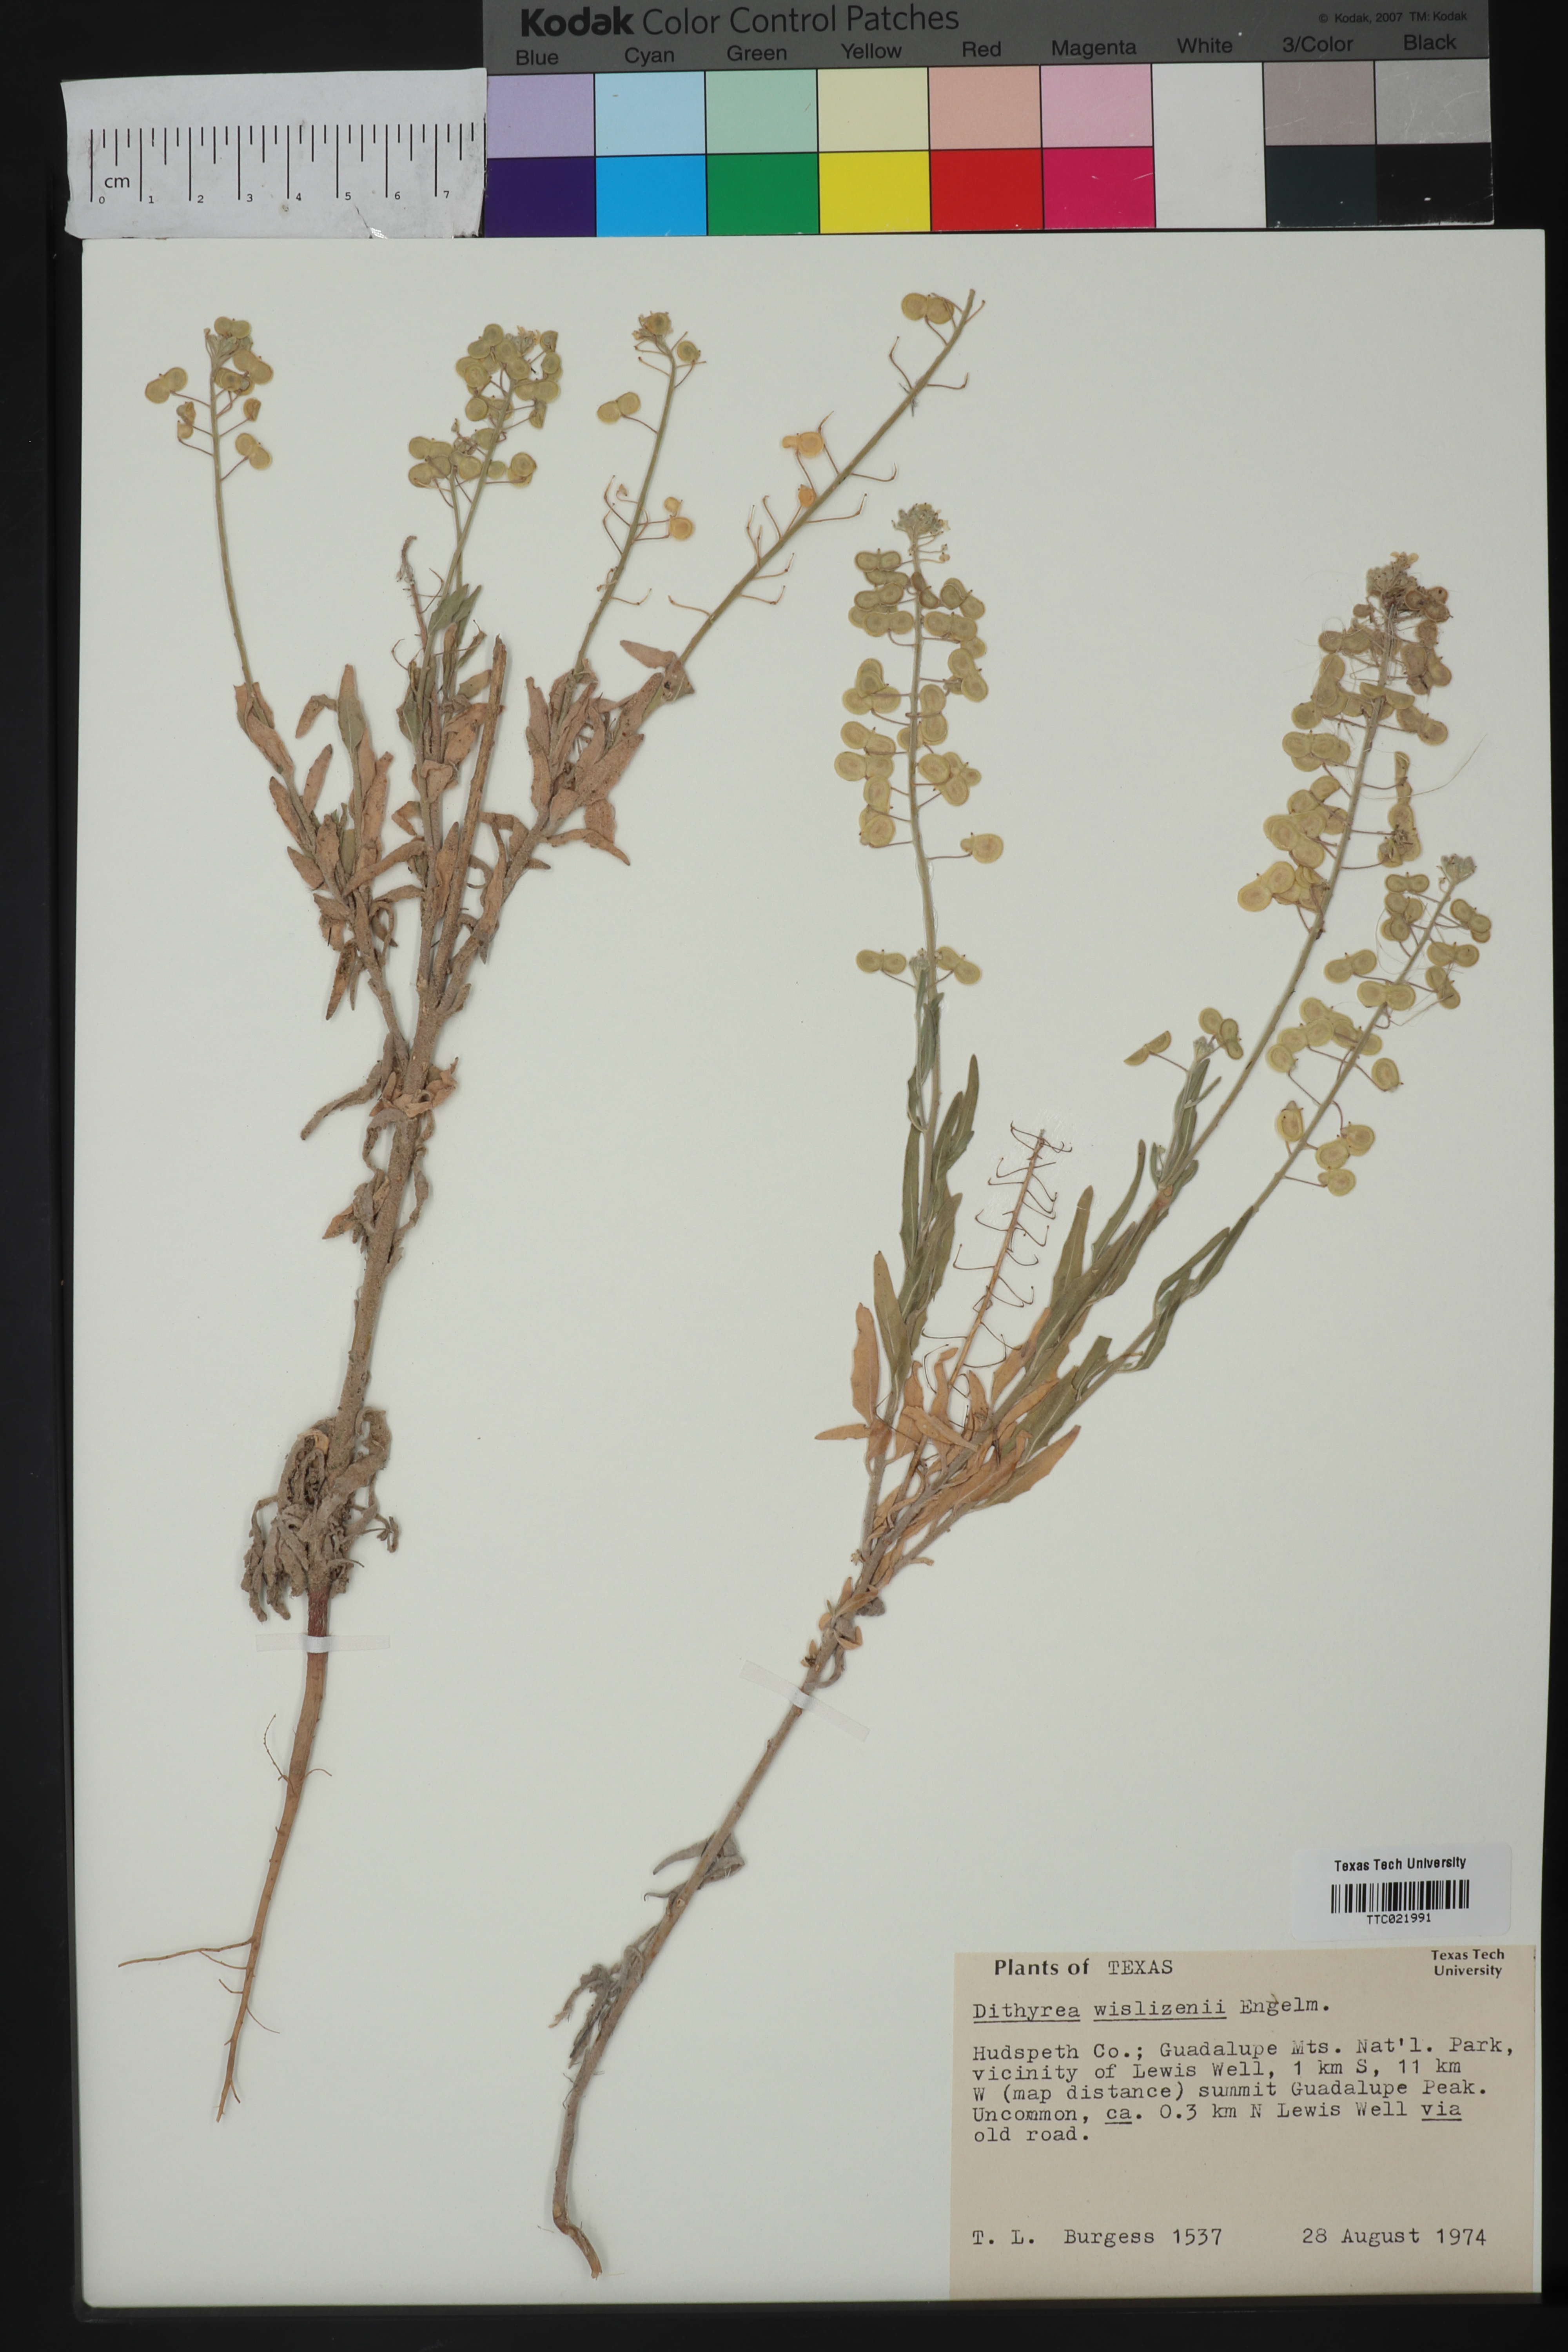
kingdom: Plantae
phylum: Tracheophyta
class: Magnoliopsida
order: Brassicales
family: Brassicaceae
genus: Dimorphocarpa
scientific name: Dimorphocarpa wislizenii
